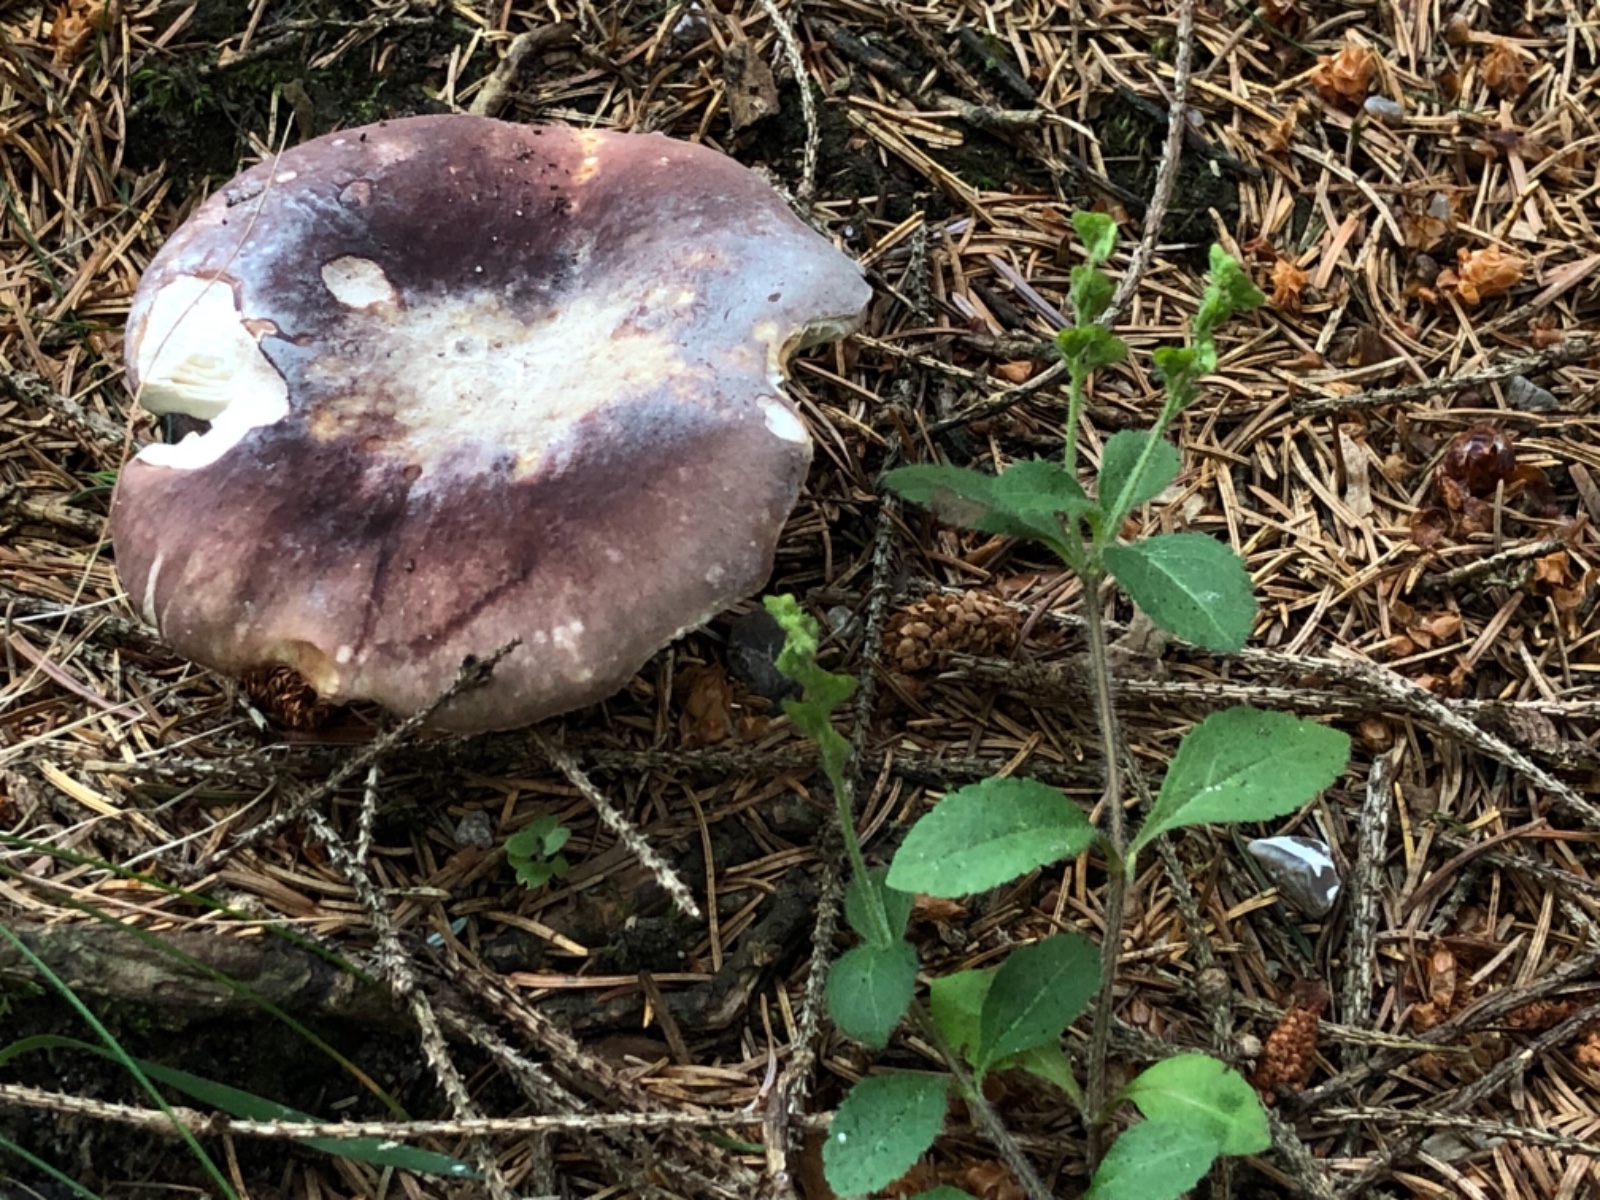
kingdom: Fungi
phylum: Basidiomycota
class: Agaricomycetes
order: Russulales
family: Russulaceae
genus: Russula
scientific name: Russula
